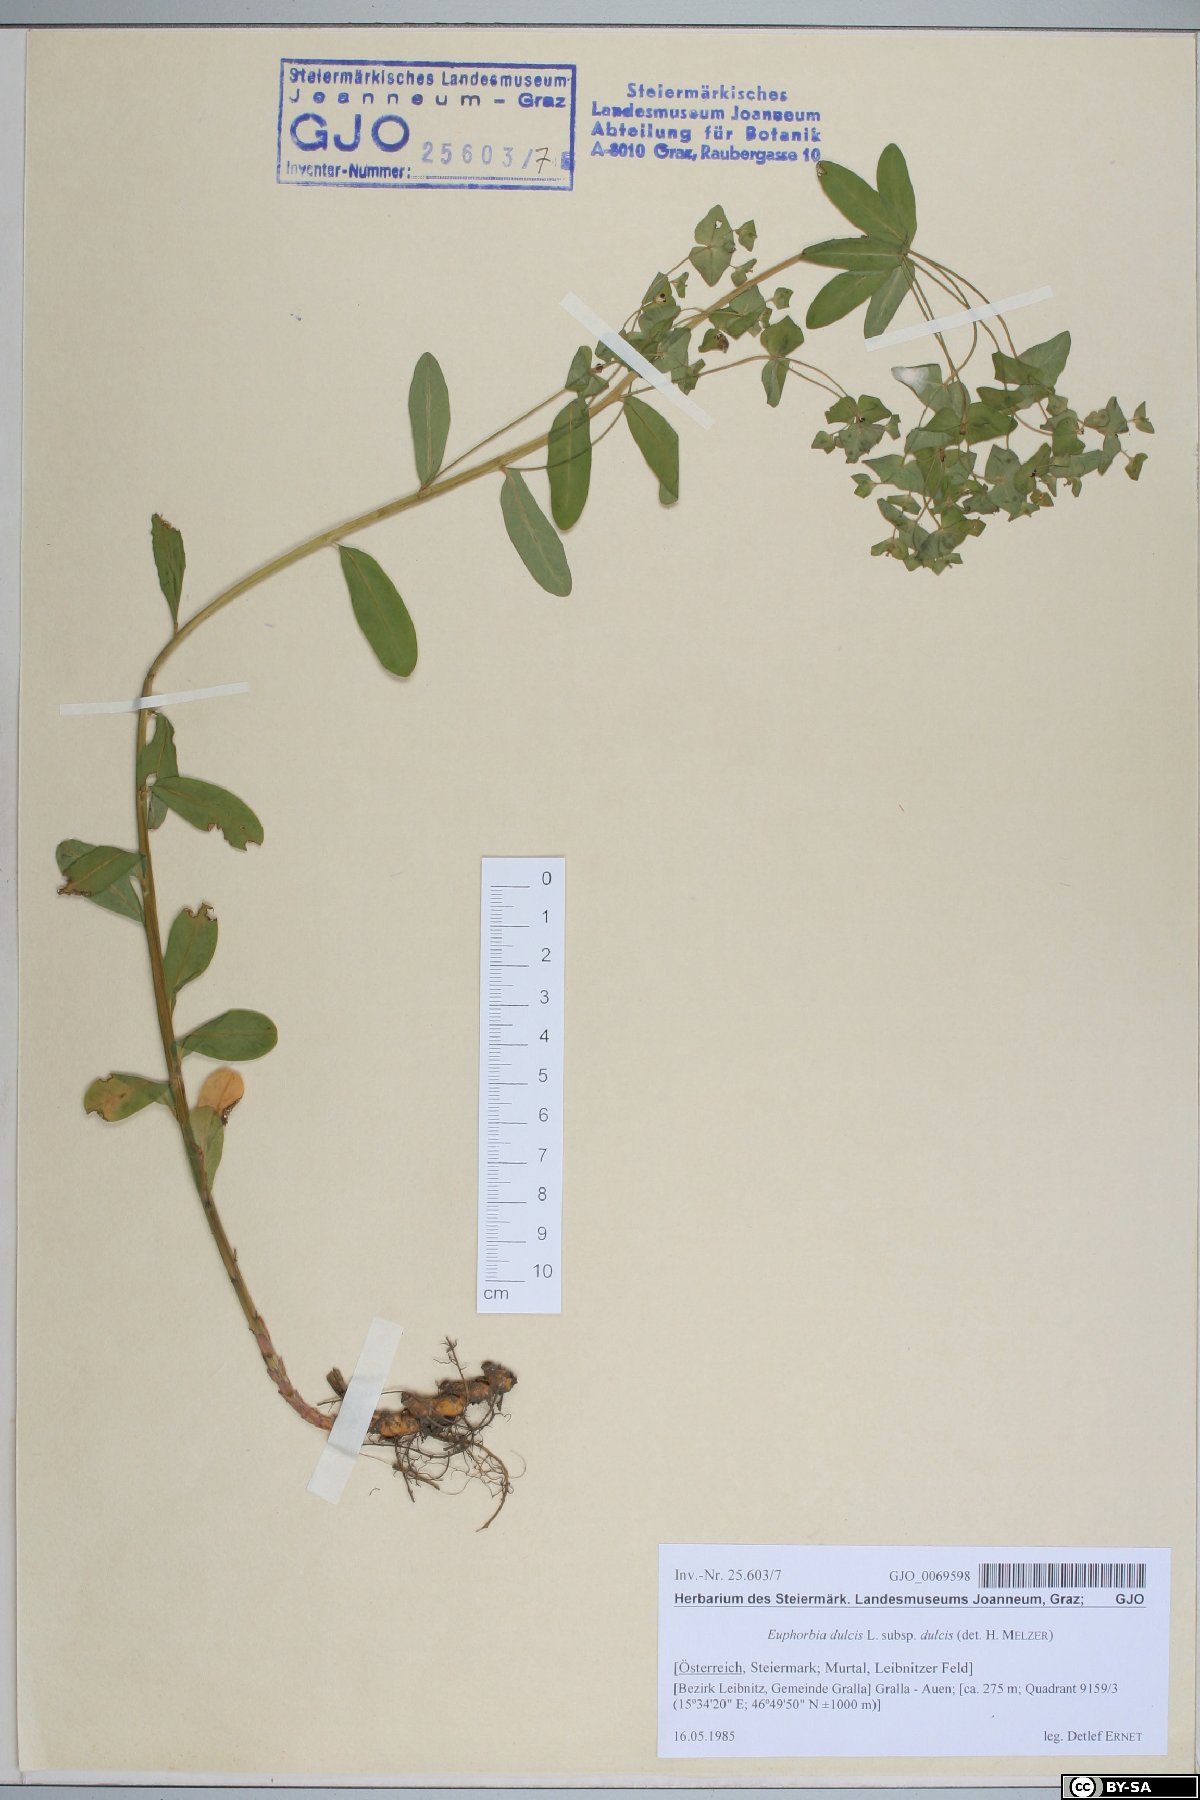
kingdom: Plantae
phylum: Tracheophyta
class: Magnoliopsida
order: Malpighiales
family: Euphorbiaceae
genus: Euphorbia
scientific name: Euphorbia dulcis
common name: Sweet spurge
